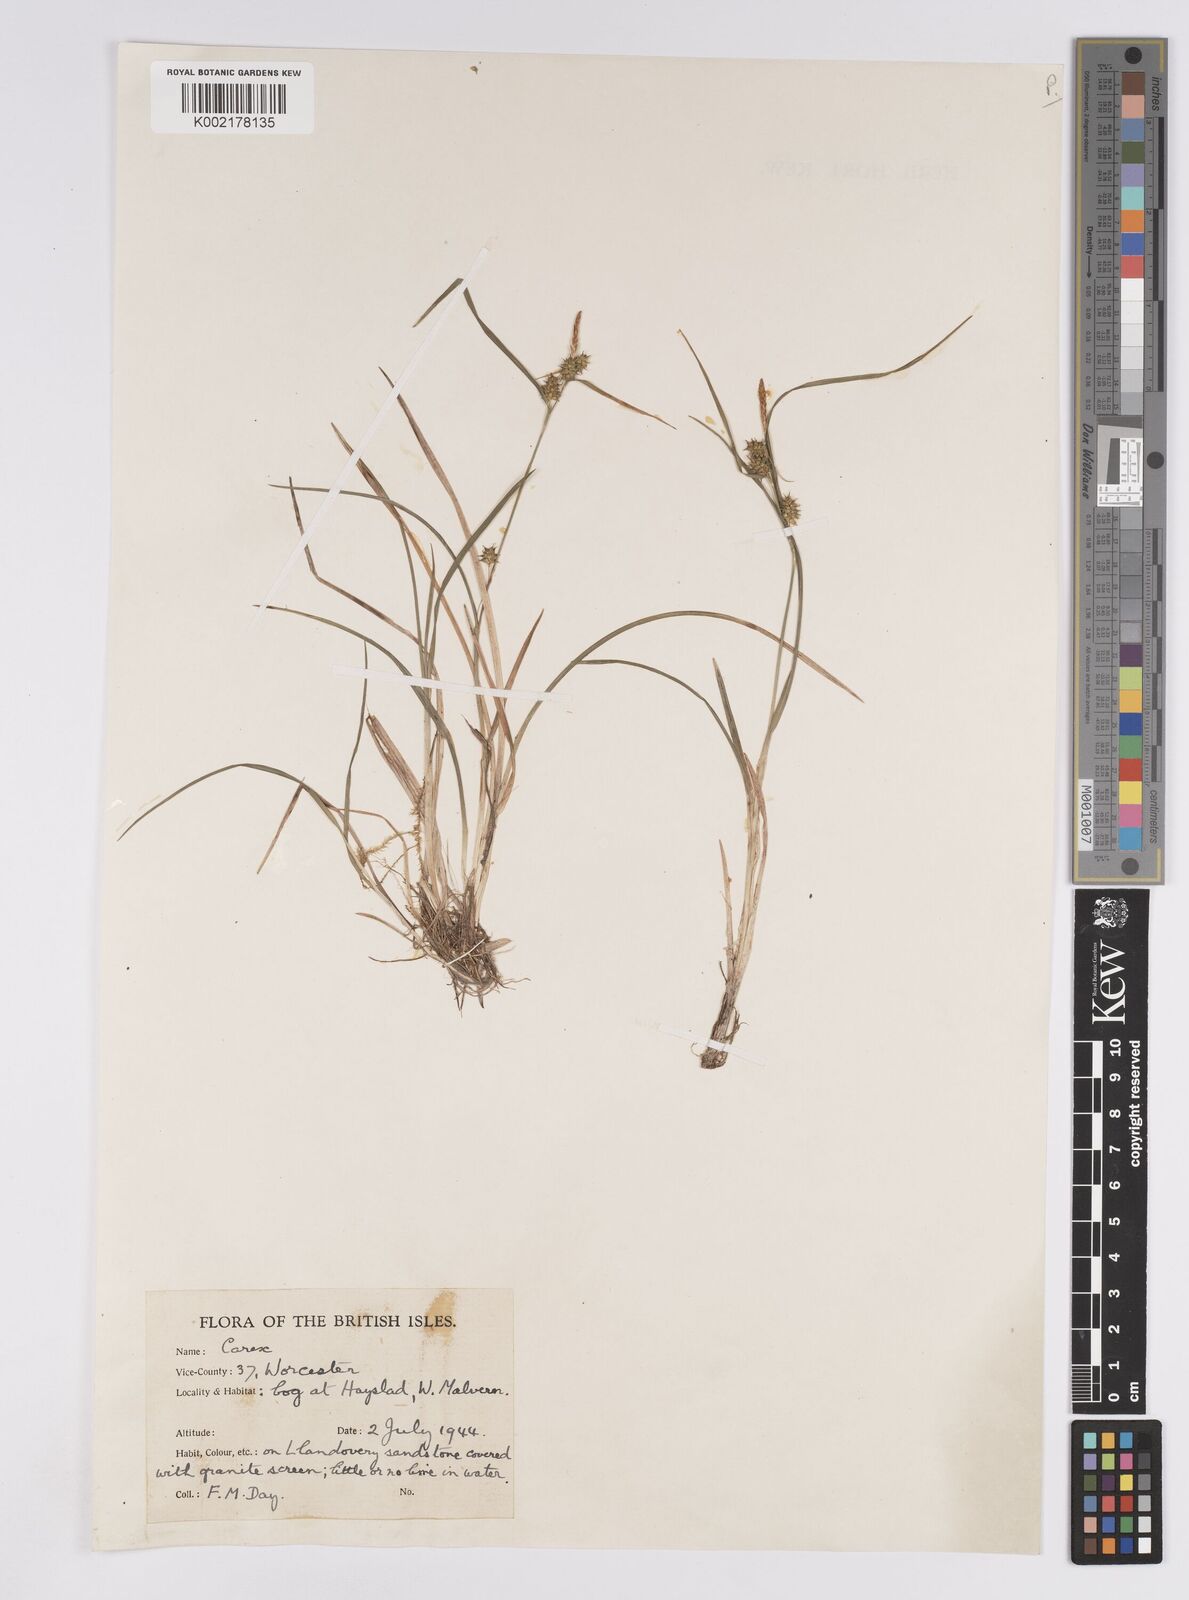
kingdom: Plantae
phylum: Tracheophyta
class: Liliopsida
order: Poales
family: Cyperaceae
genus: Carex
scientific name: Carex demissa
